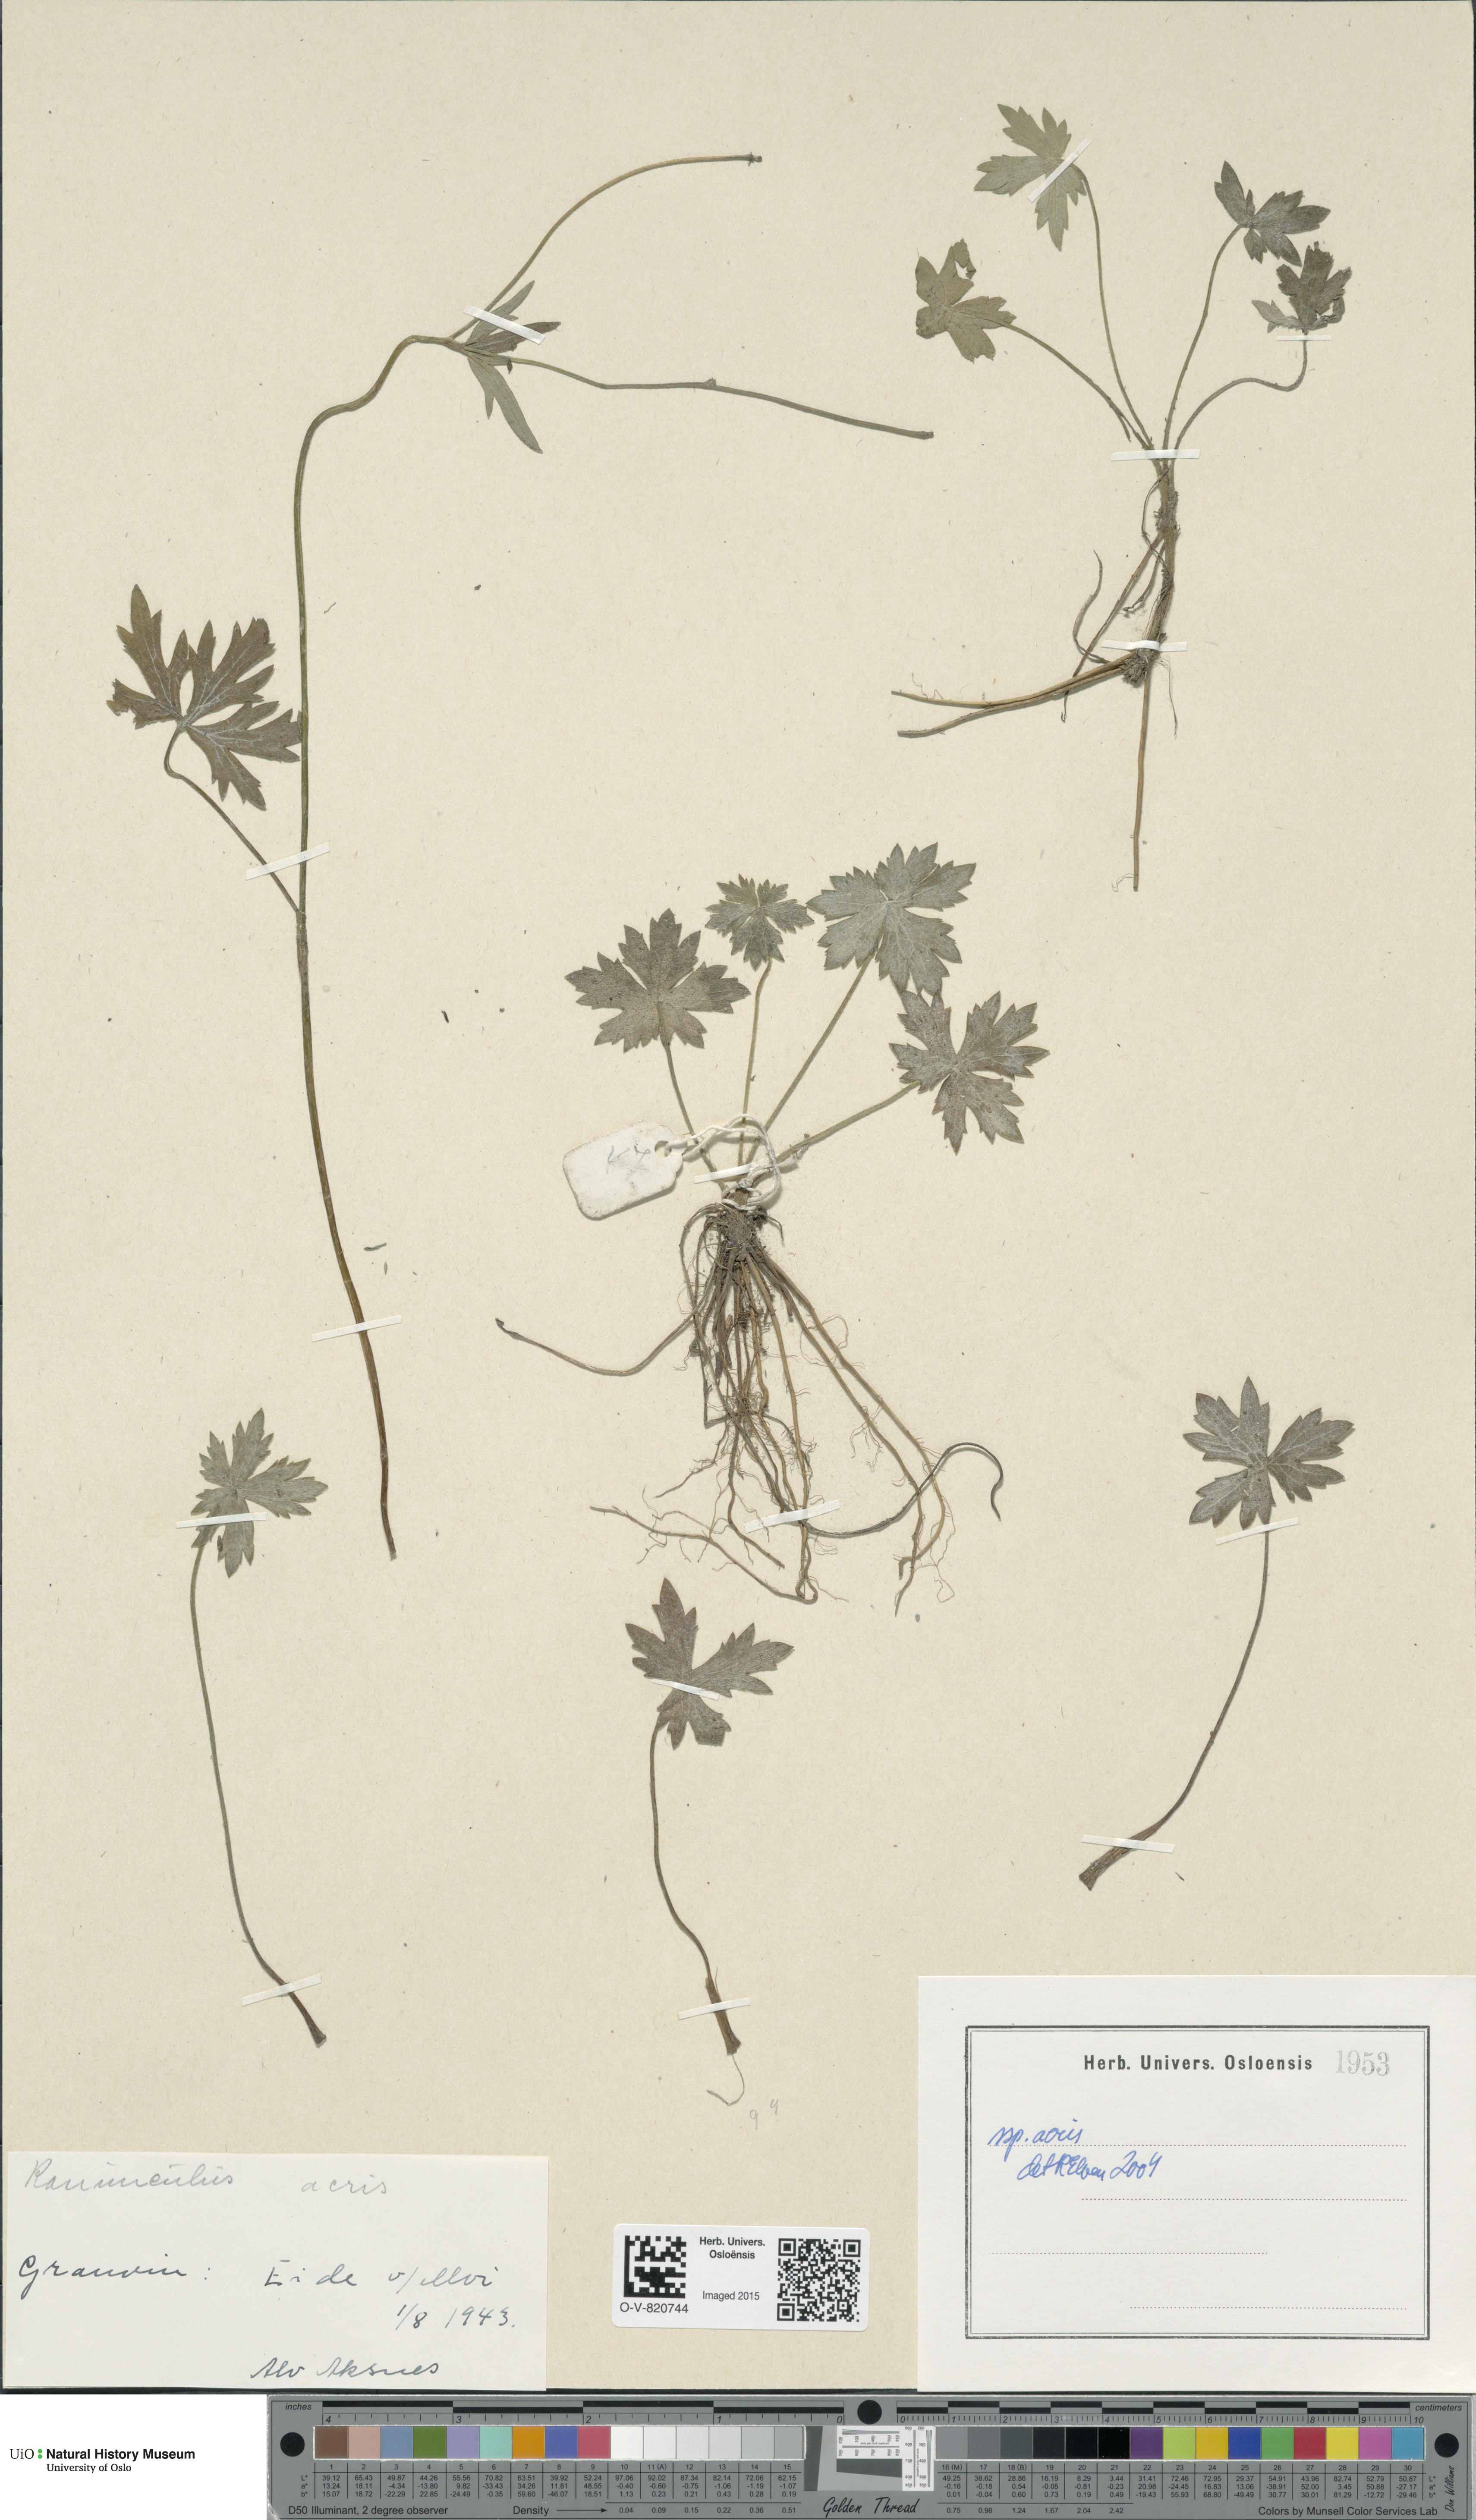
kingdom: Plantae
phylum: Tracheophyta
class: Magnoliopsida
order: Ranunculales
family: Ranunculaceae
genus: Ranunculus
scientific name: Ranunculus acris
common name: Meadow buttercup
